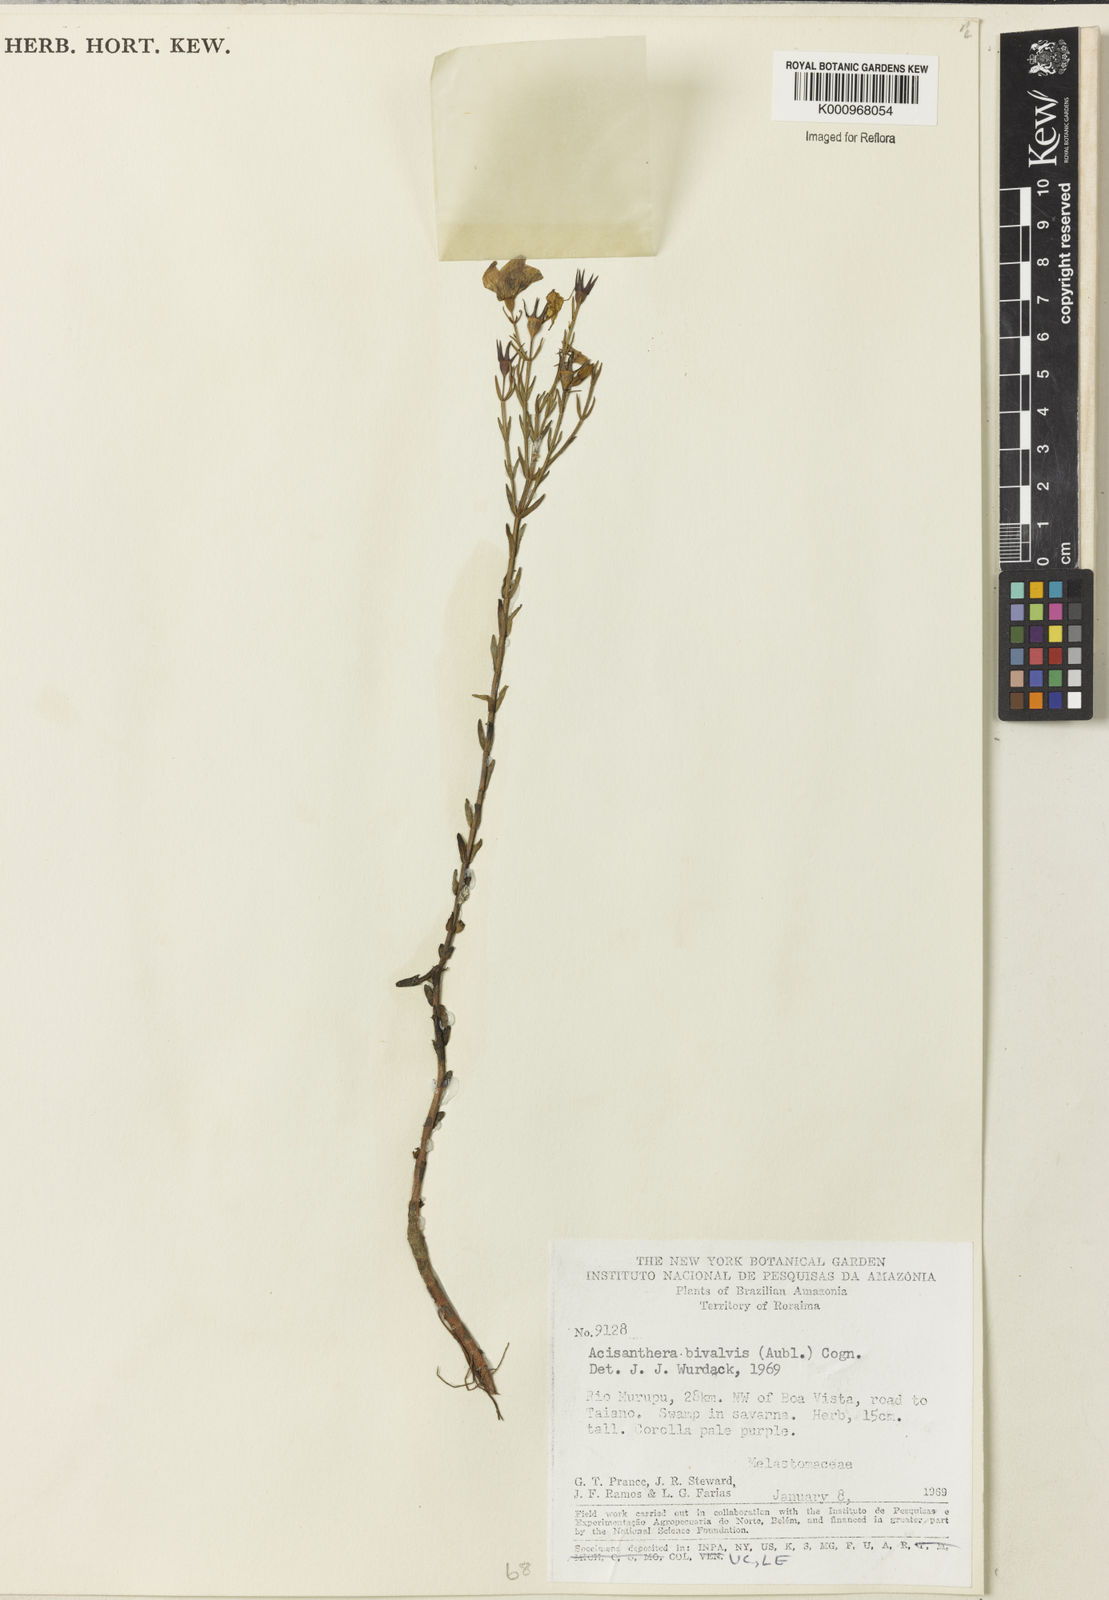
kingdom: Plantae
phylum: Tracheophyta
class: Magnoliopsida
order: Myrtales
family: Melastomataceae
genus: Noterophila
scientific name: Noterophila bivalvis
